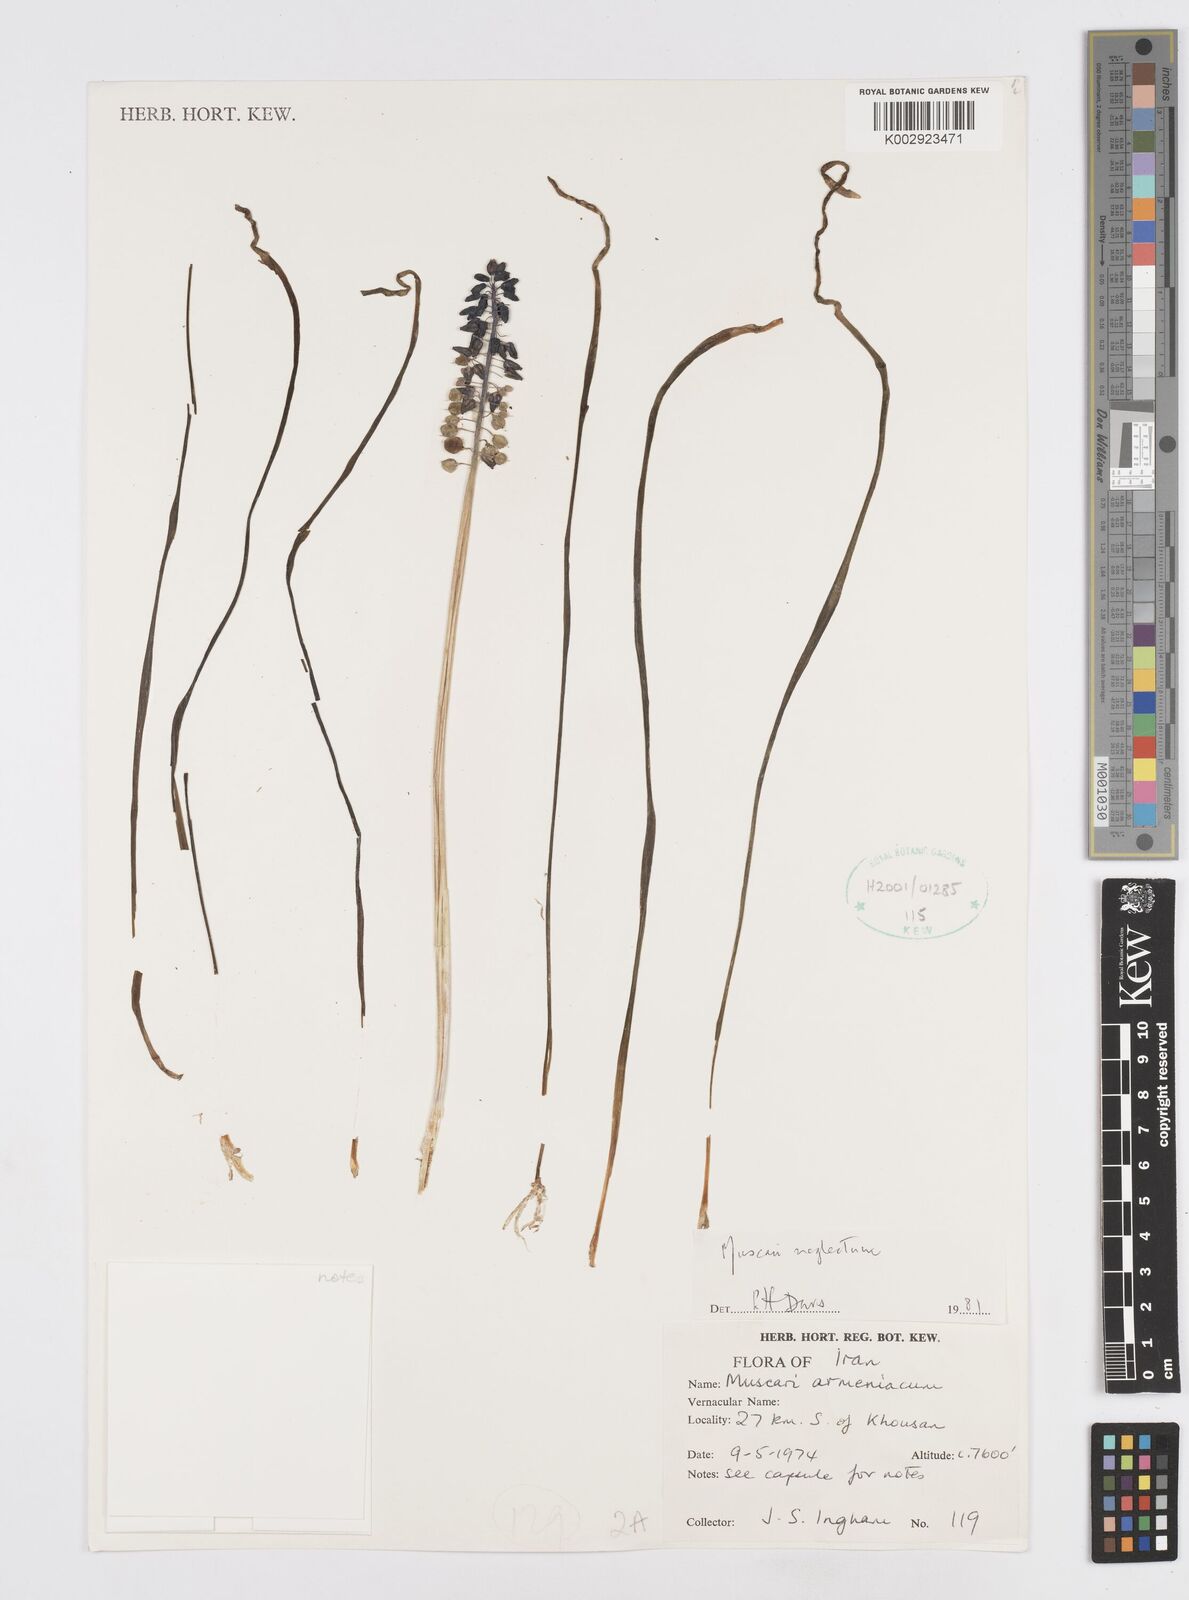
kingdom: Plantae
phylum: Tracheophyta
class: Liliopsida
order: Asparagales
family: Asparagaceae
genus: Muscari
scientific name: Muscari neglectum
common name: Grape-hyacinth
